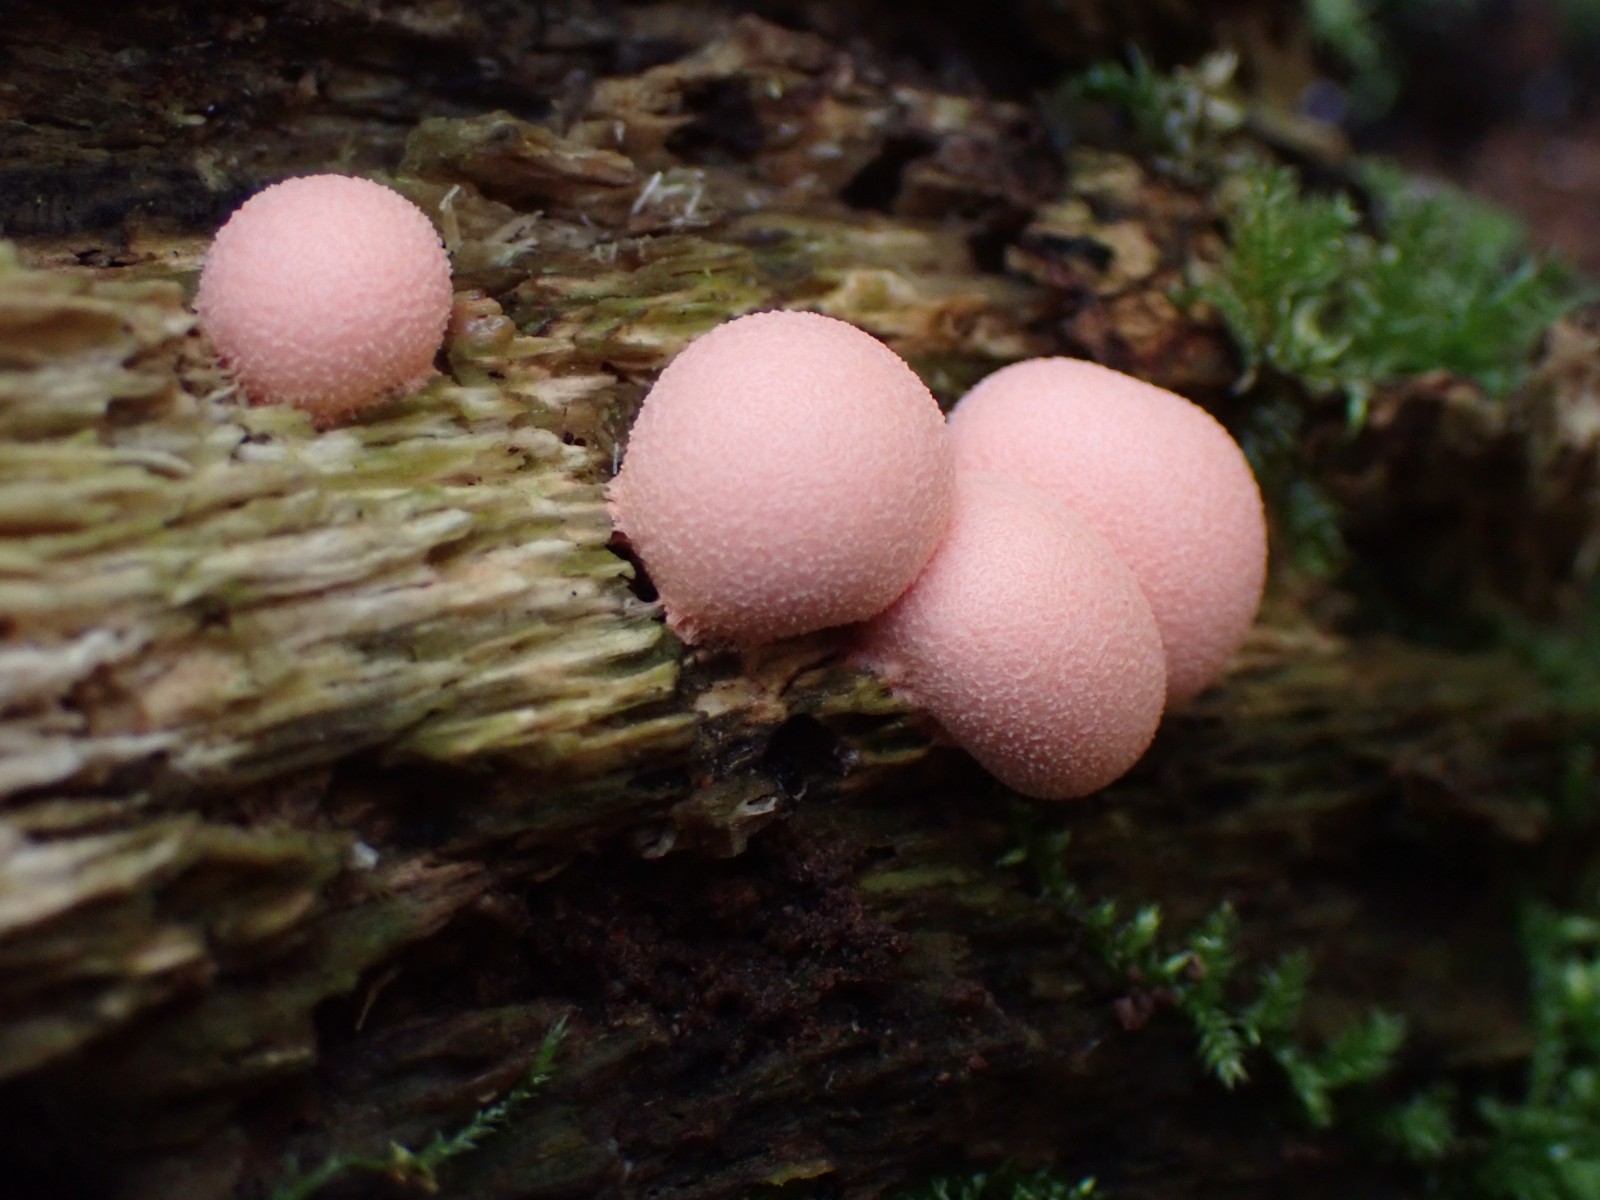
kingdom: Protozoa
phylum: Mycetozoa
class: Myxomycetes
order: Cribrariales
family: Tubiferaceae
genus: Lycogala
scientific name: Lycogala epidendrum
